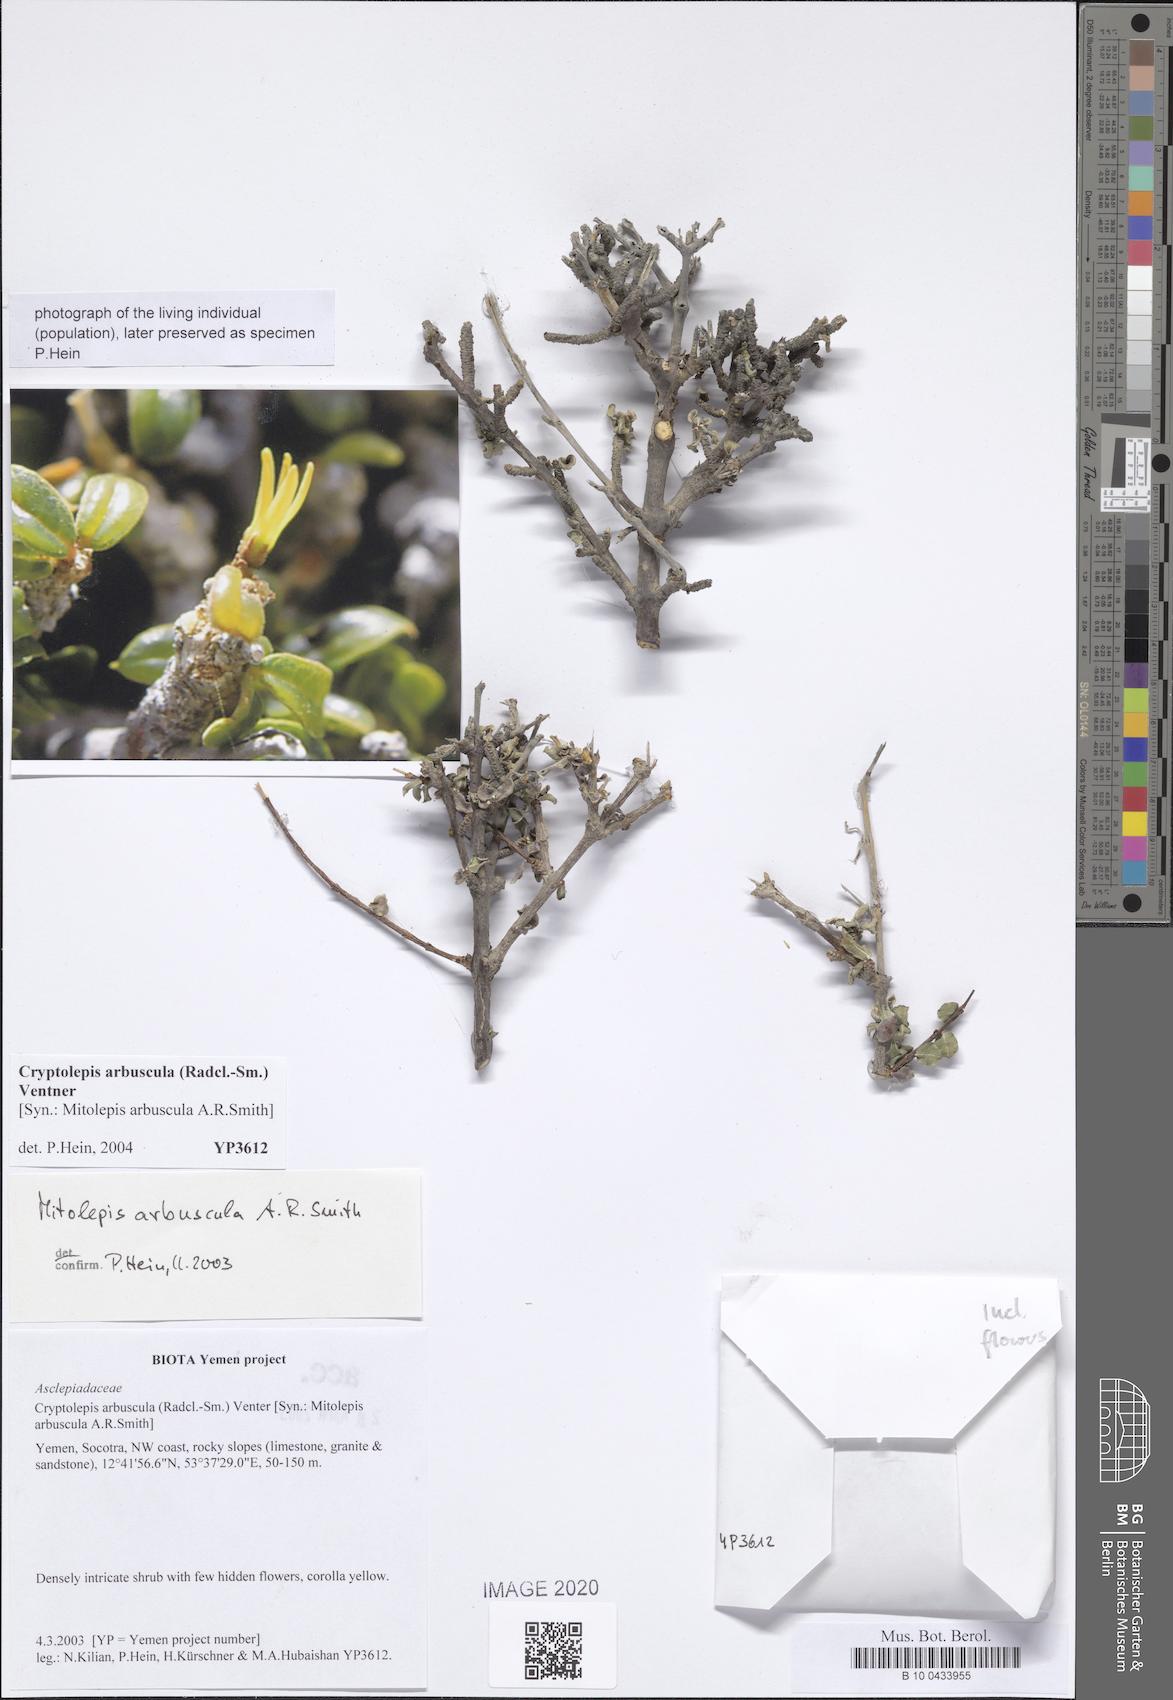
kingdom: Plantae
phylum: Tracheophyta
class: Magnoliopsida
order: Gentianales
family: Apocynaceae
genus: Cryptolepis
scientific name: Cryptolepis arbuscula
